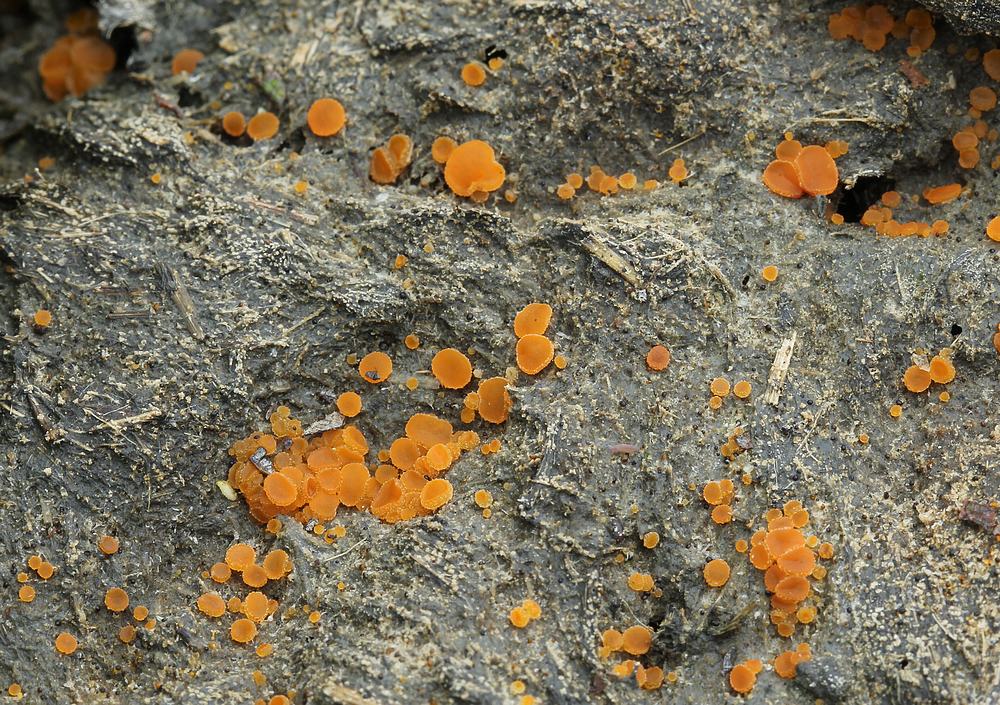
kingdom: Fungi
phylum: Ascomycota
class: Pezizomycetes
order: Pezizales
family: Pyronemataceae
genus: Cheilymenia
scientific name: Cheilymenia granulata
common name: møgbæger
